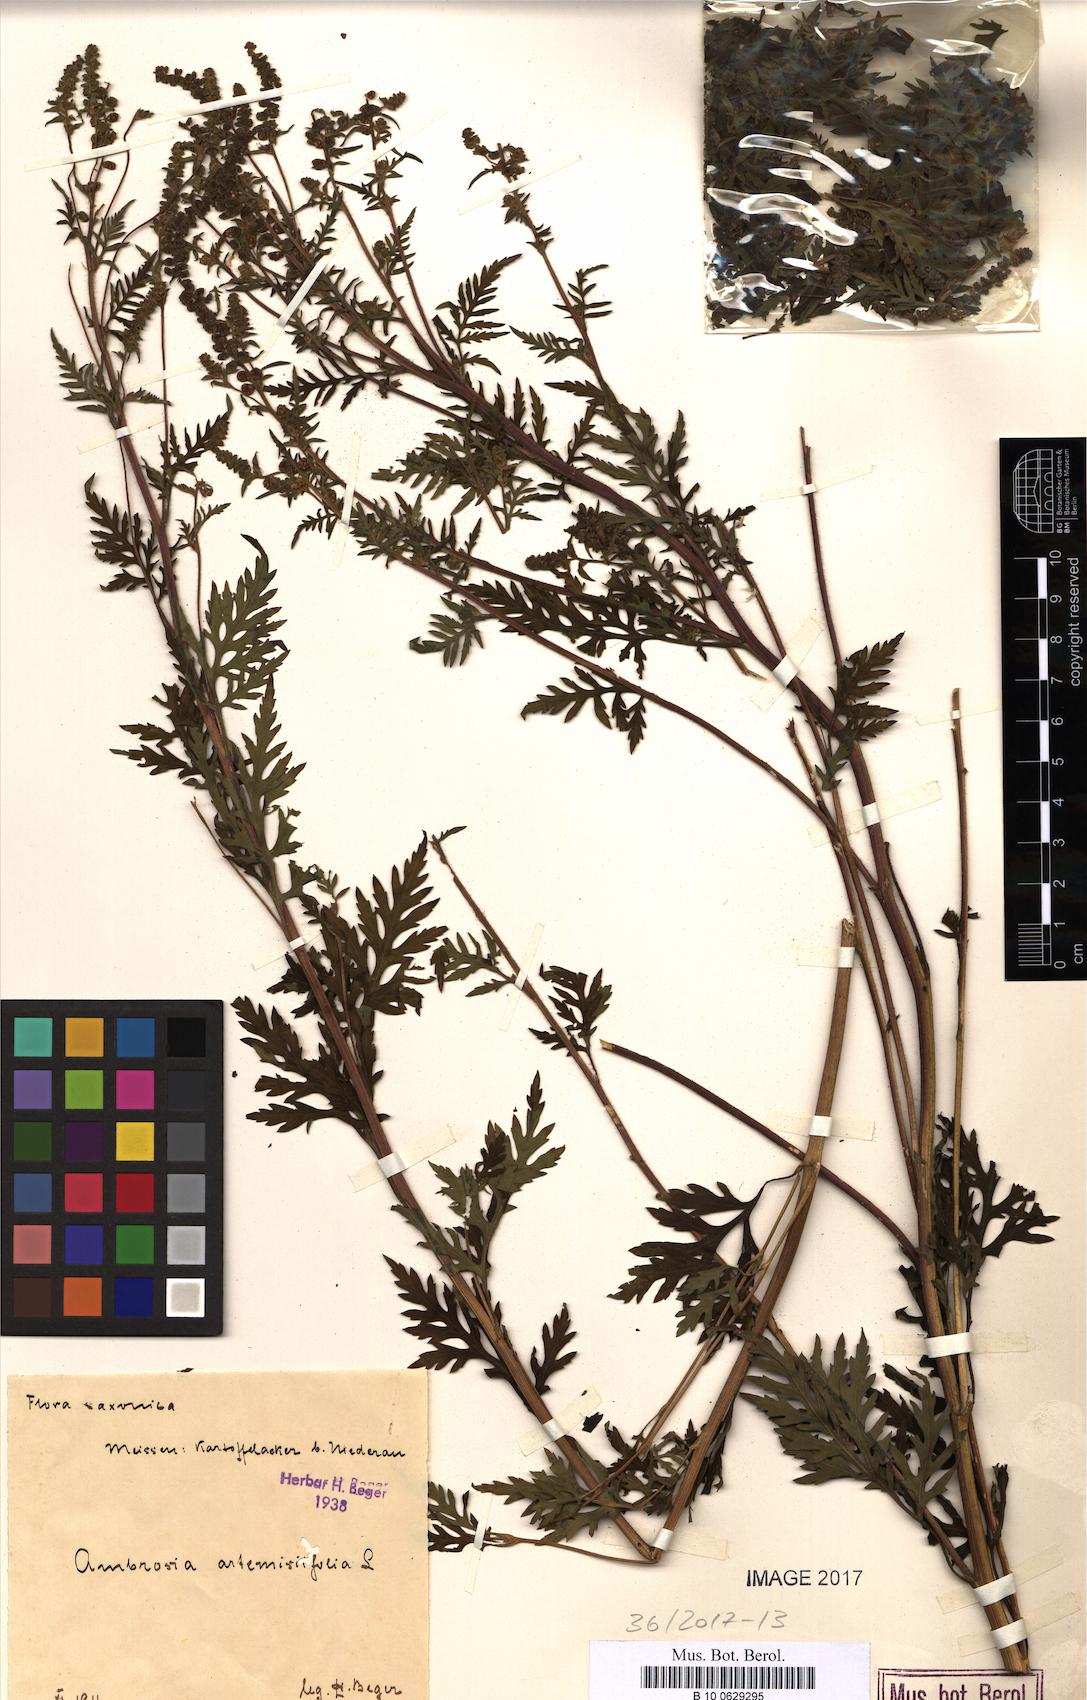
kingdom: Plantae
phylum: Tracheophyta
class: Magnoliopsida
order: Asterales
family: Asteraceae
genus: Ambrosia
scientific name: Ambrosia artemisiifolia
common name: Annual ragweed
